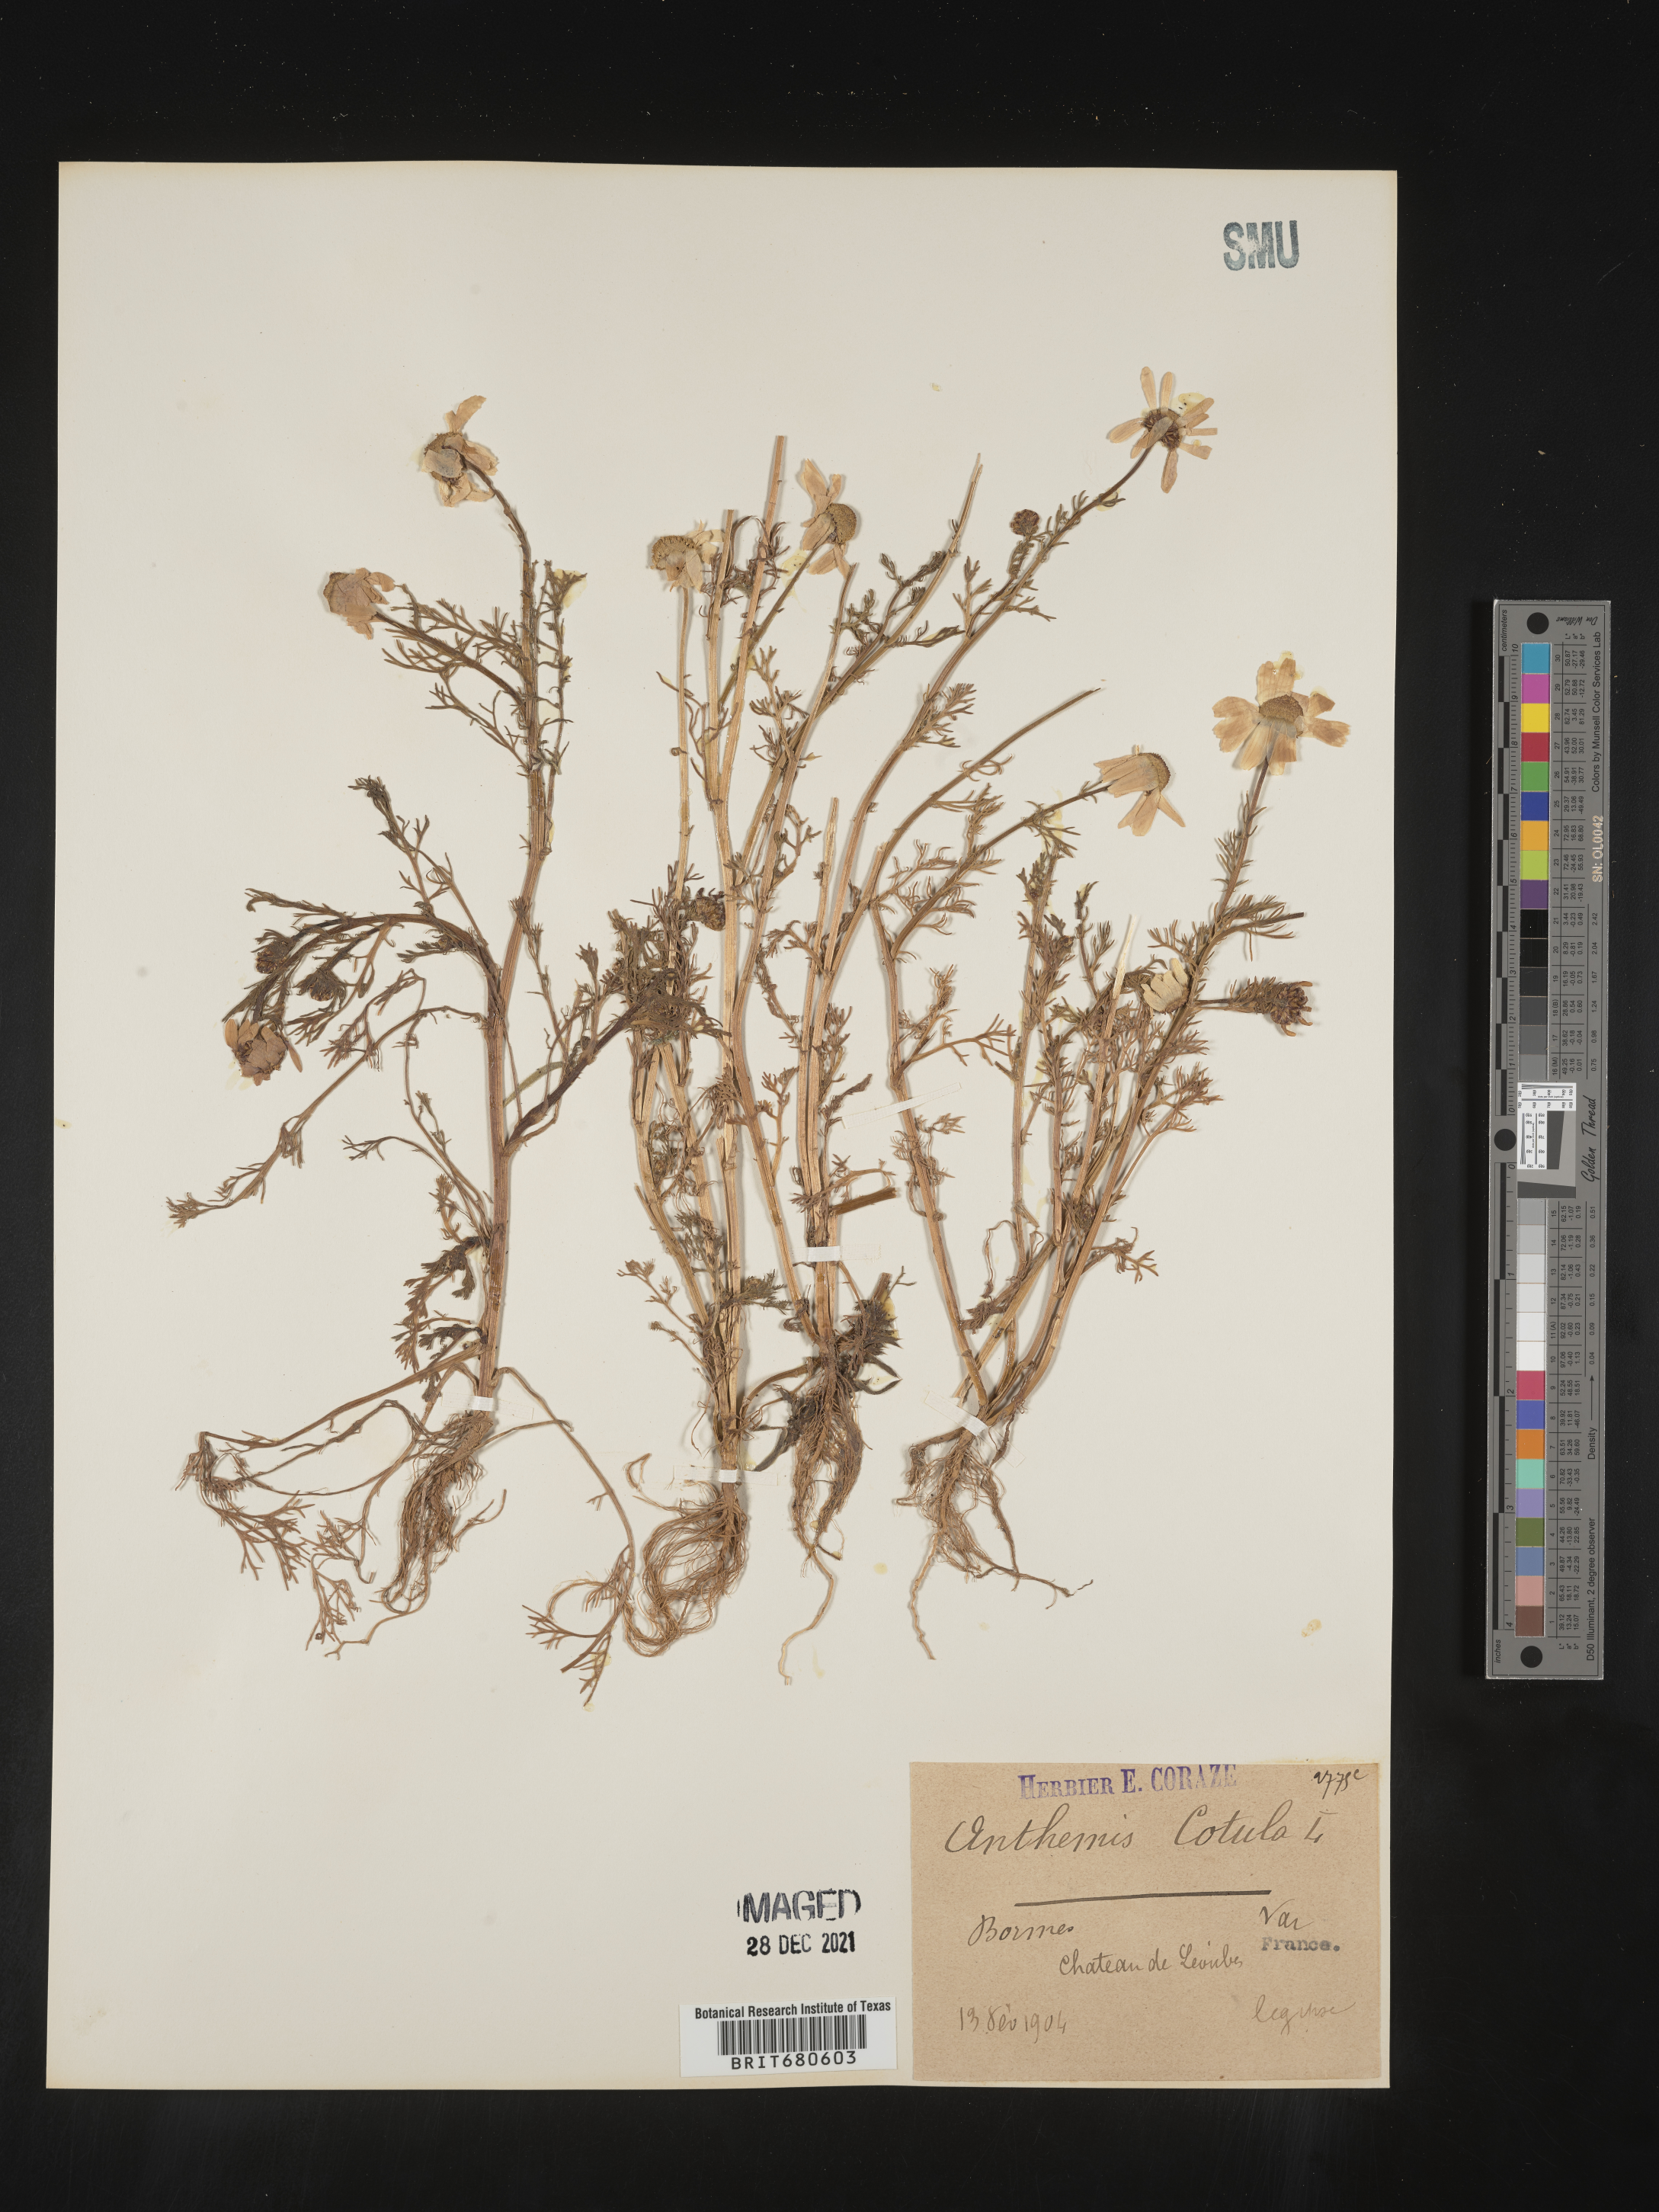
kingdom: Plantae
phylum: Tracheophyta
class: Magnoliopsida
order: Asterales
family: Asteraceae
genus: Anthemis
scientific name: Anthemis
